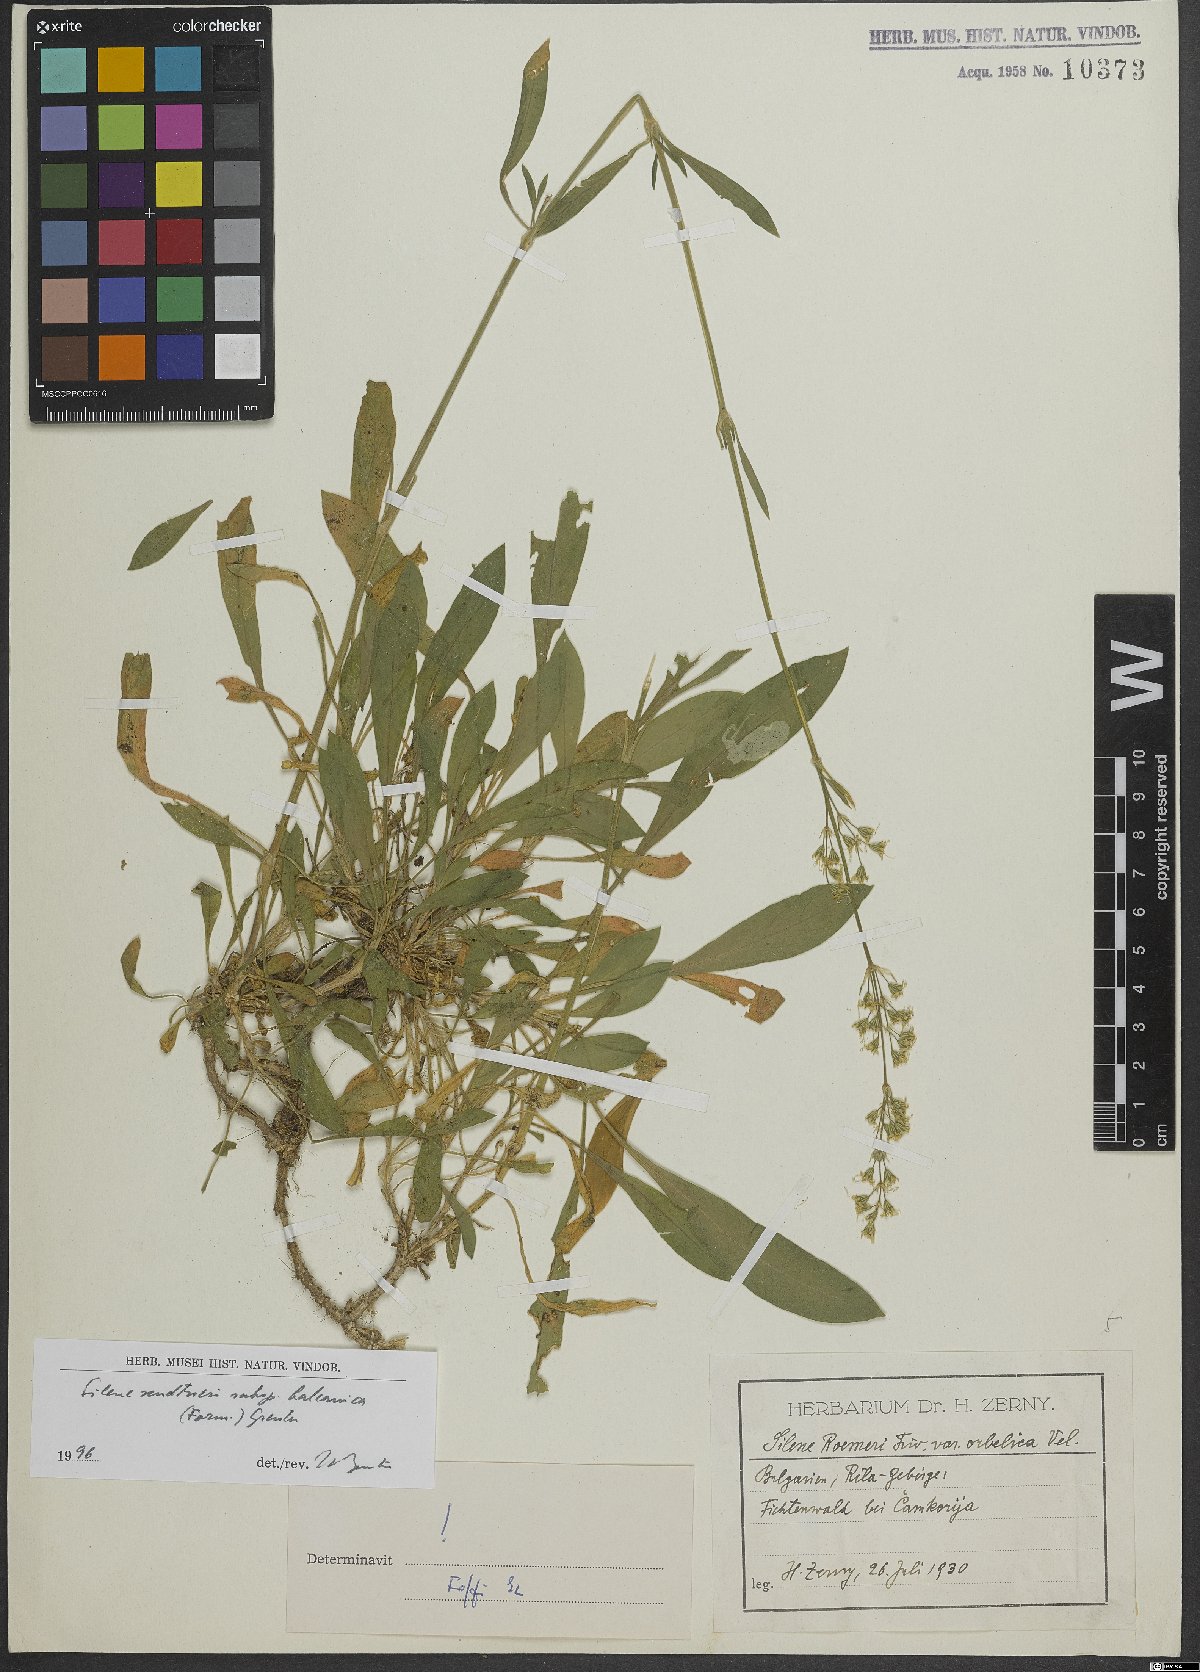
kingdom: Plantae
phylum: Tracheophyta
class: Magnoliopsida
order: Caryophyllales
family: Caryophyllaceae
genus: Silene
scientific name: Silene sendtneri
